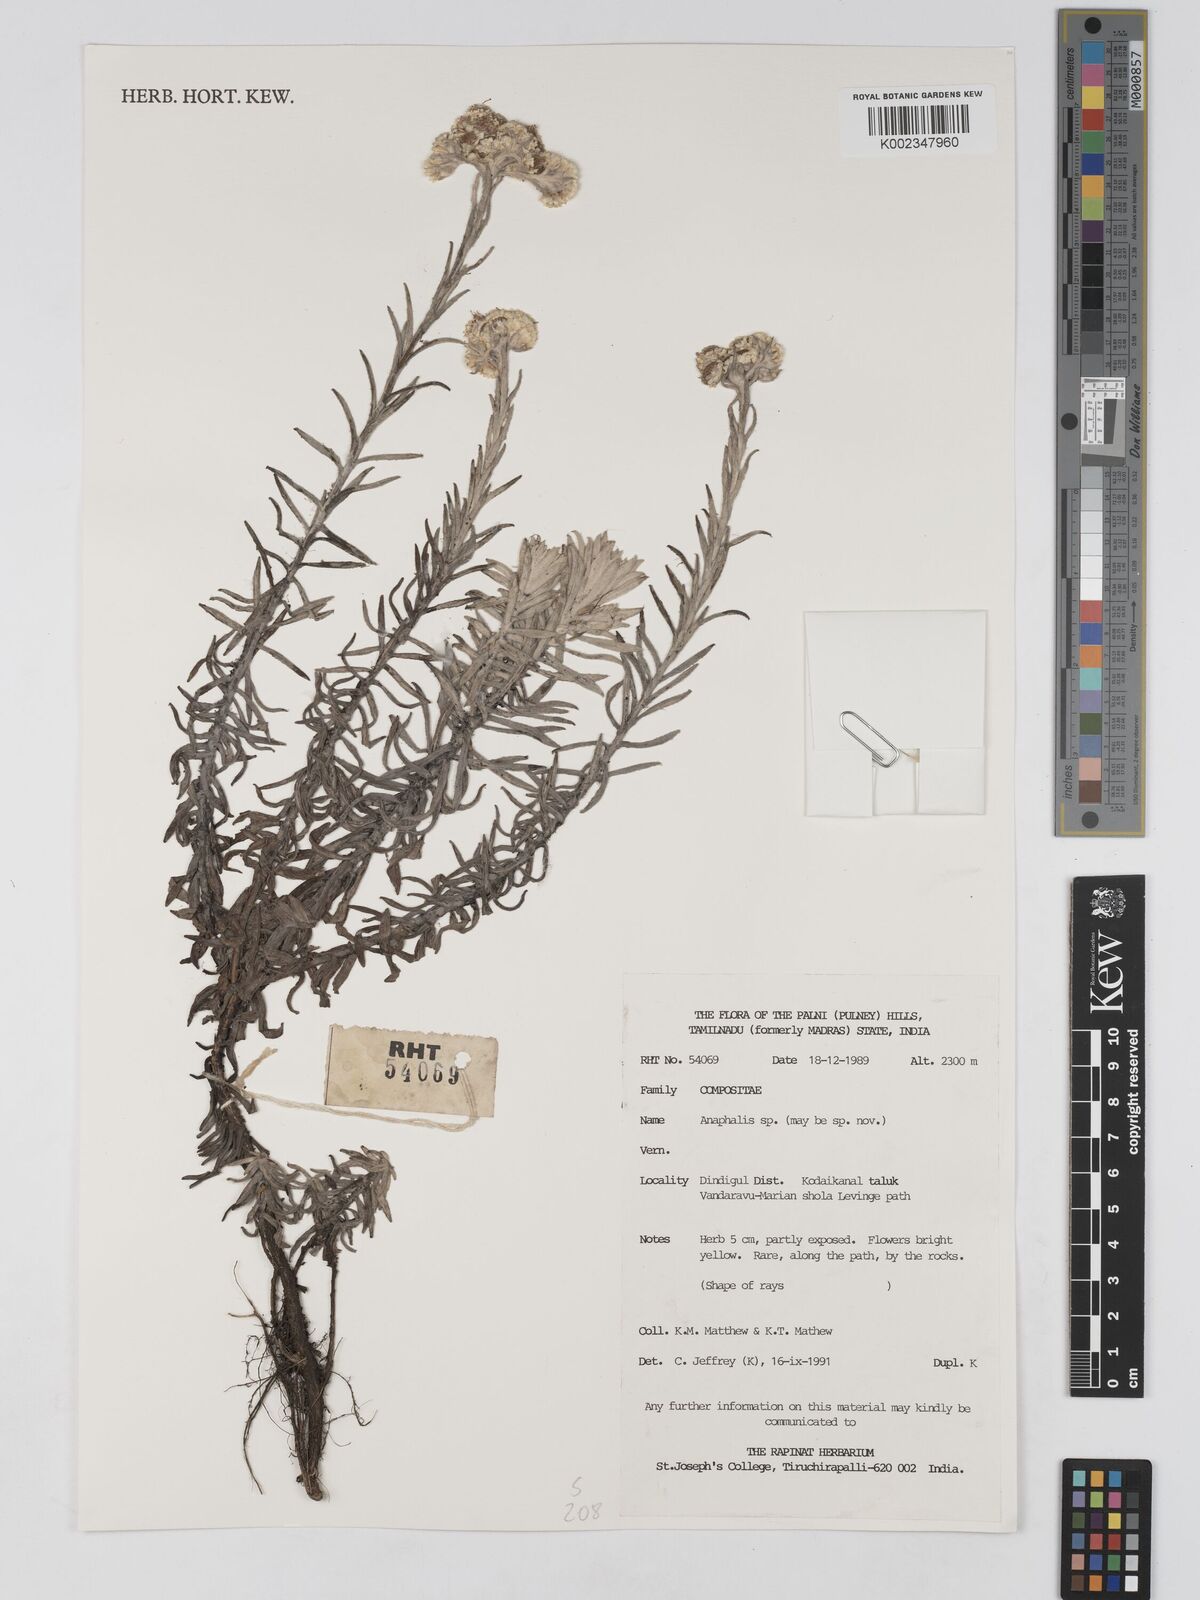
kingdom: Plantae
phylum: Tracheophyta
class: Magnoliopsida
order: Asterales
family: Asteraceae
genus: Anaphalis
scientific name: Anaphalis
